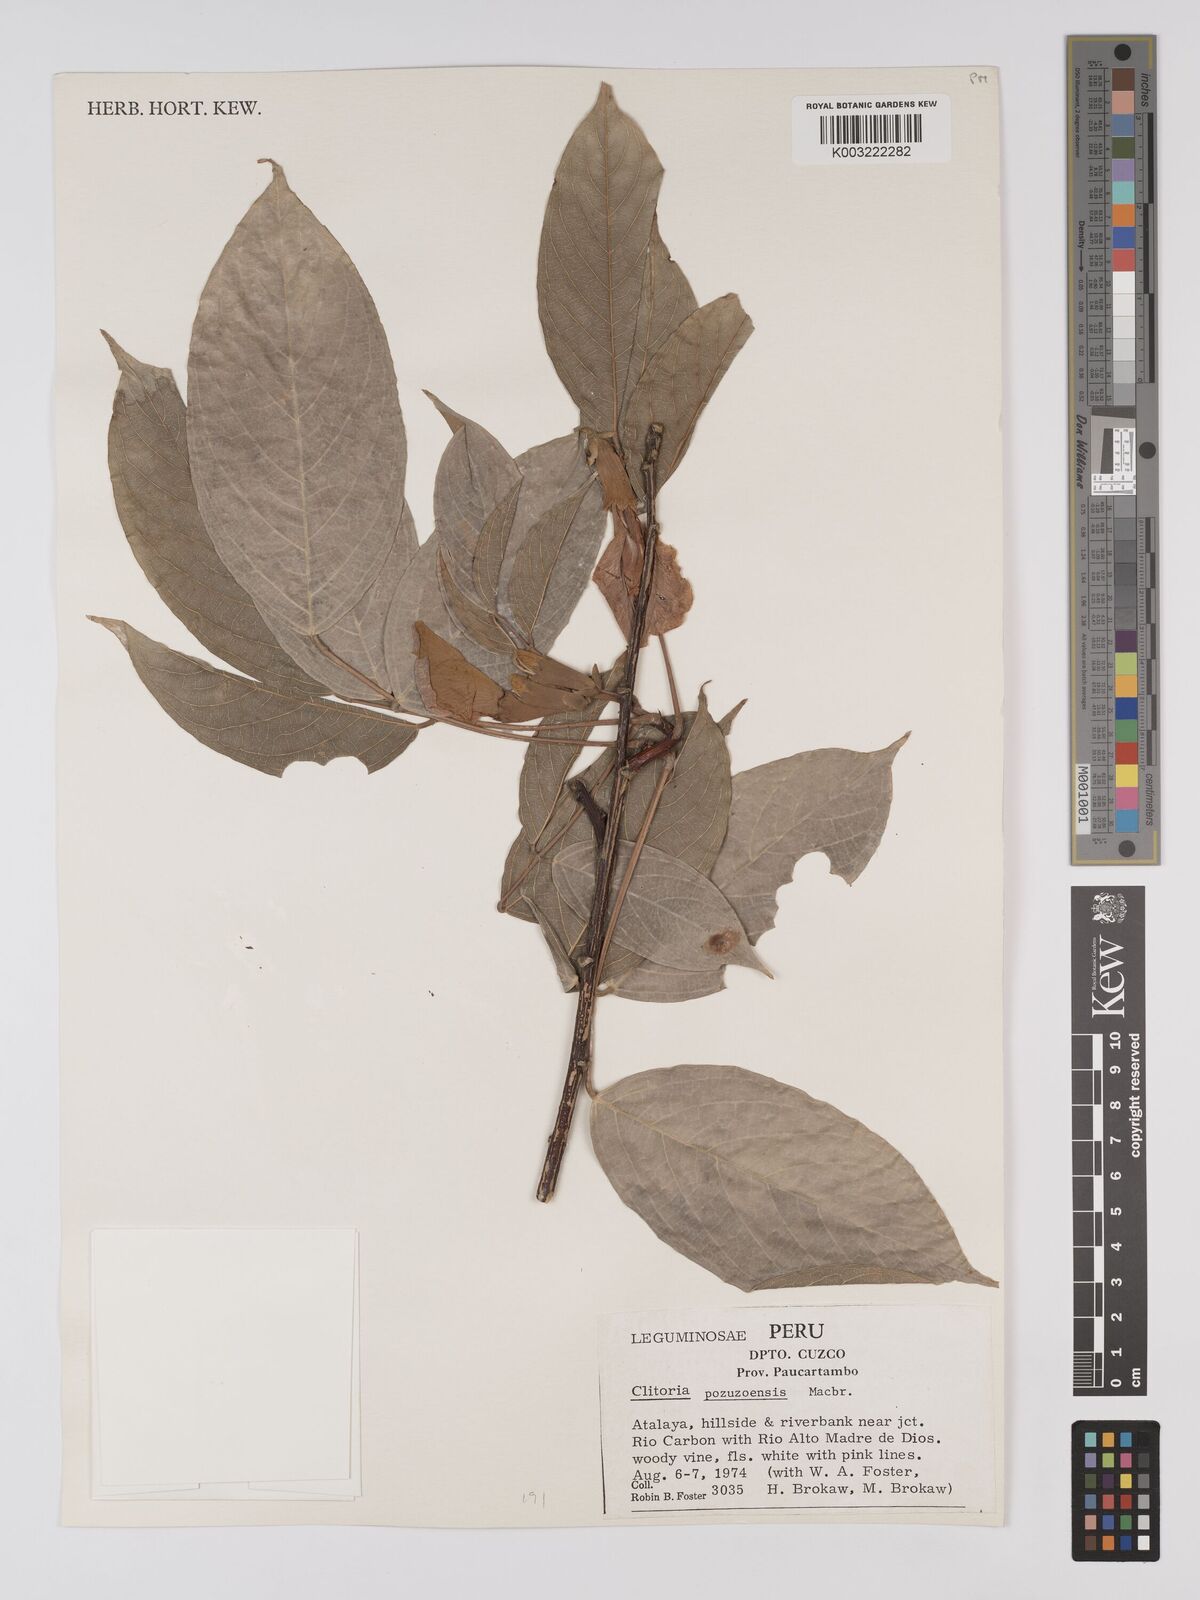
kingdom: Plantae
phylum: Tracheophyta
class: Magnoliopsida
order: Fabales
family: Fabaceae
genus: Clitoria
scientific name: Clitoria pozuzoensis
